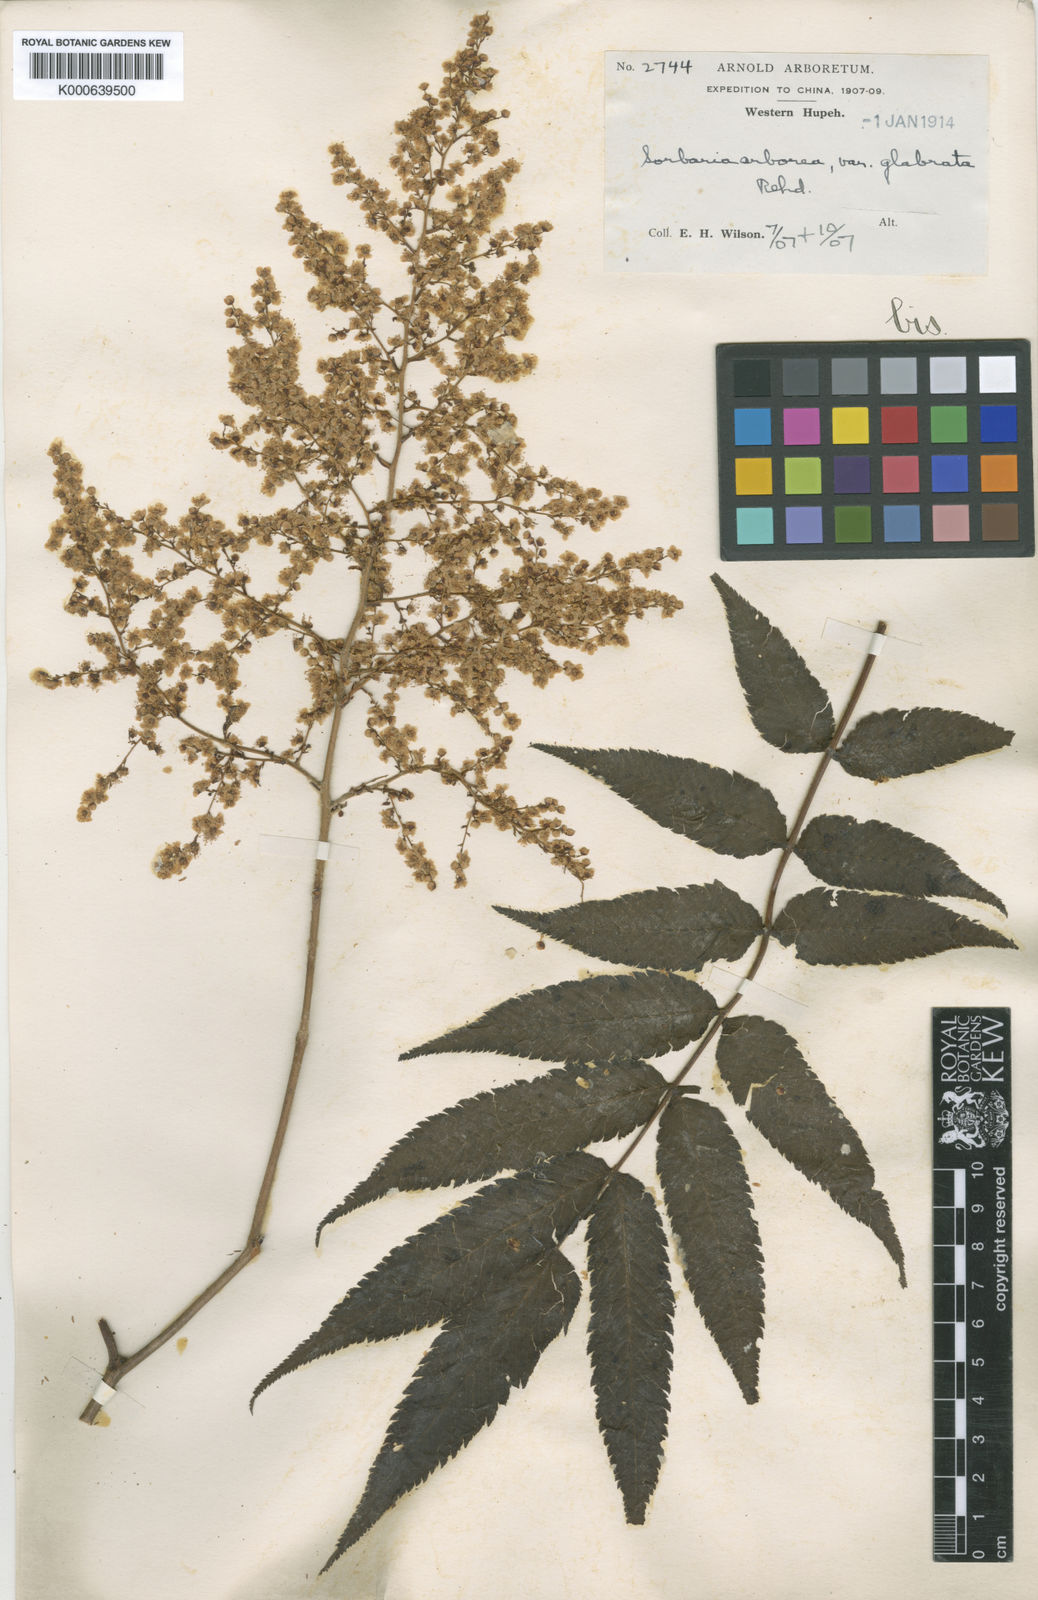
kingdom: Plantae
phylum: Tracheophyta
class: Magnoliopsida
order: Rosales
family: Rosaceae
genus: Sorbaria
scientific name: Sorbaria kirilowii
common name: Chinese sorbaria
